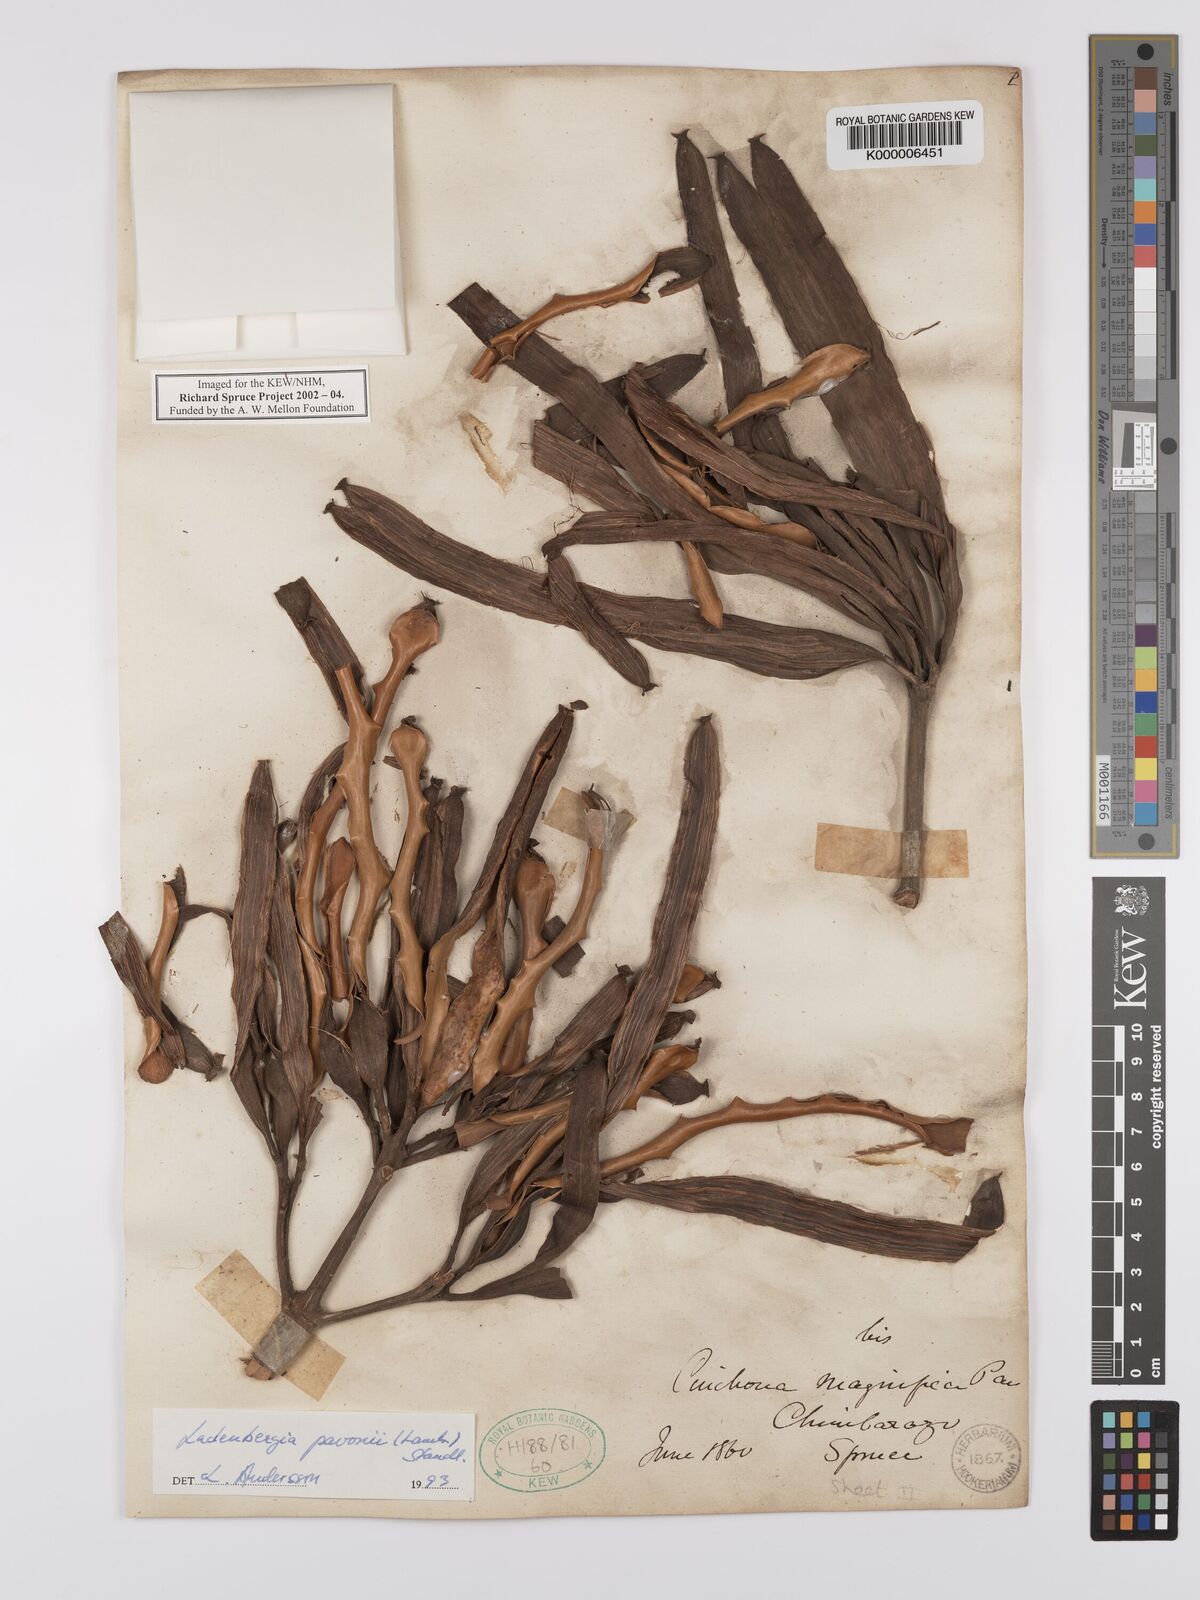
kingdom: Plantae
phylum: Tracheophyta
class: Magnoliopsida
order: Gentianales
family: Rubiaceae
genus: Ladenbergia
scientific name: Ladenbergia pavonii
